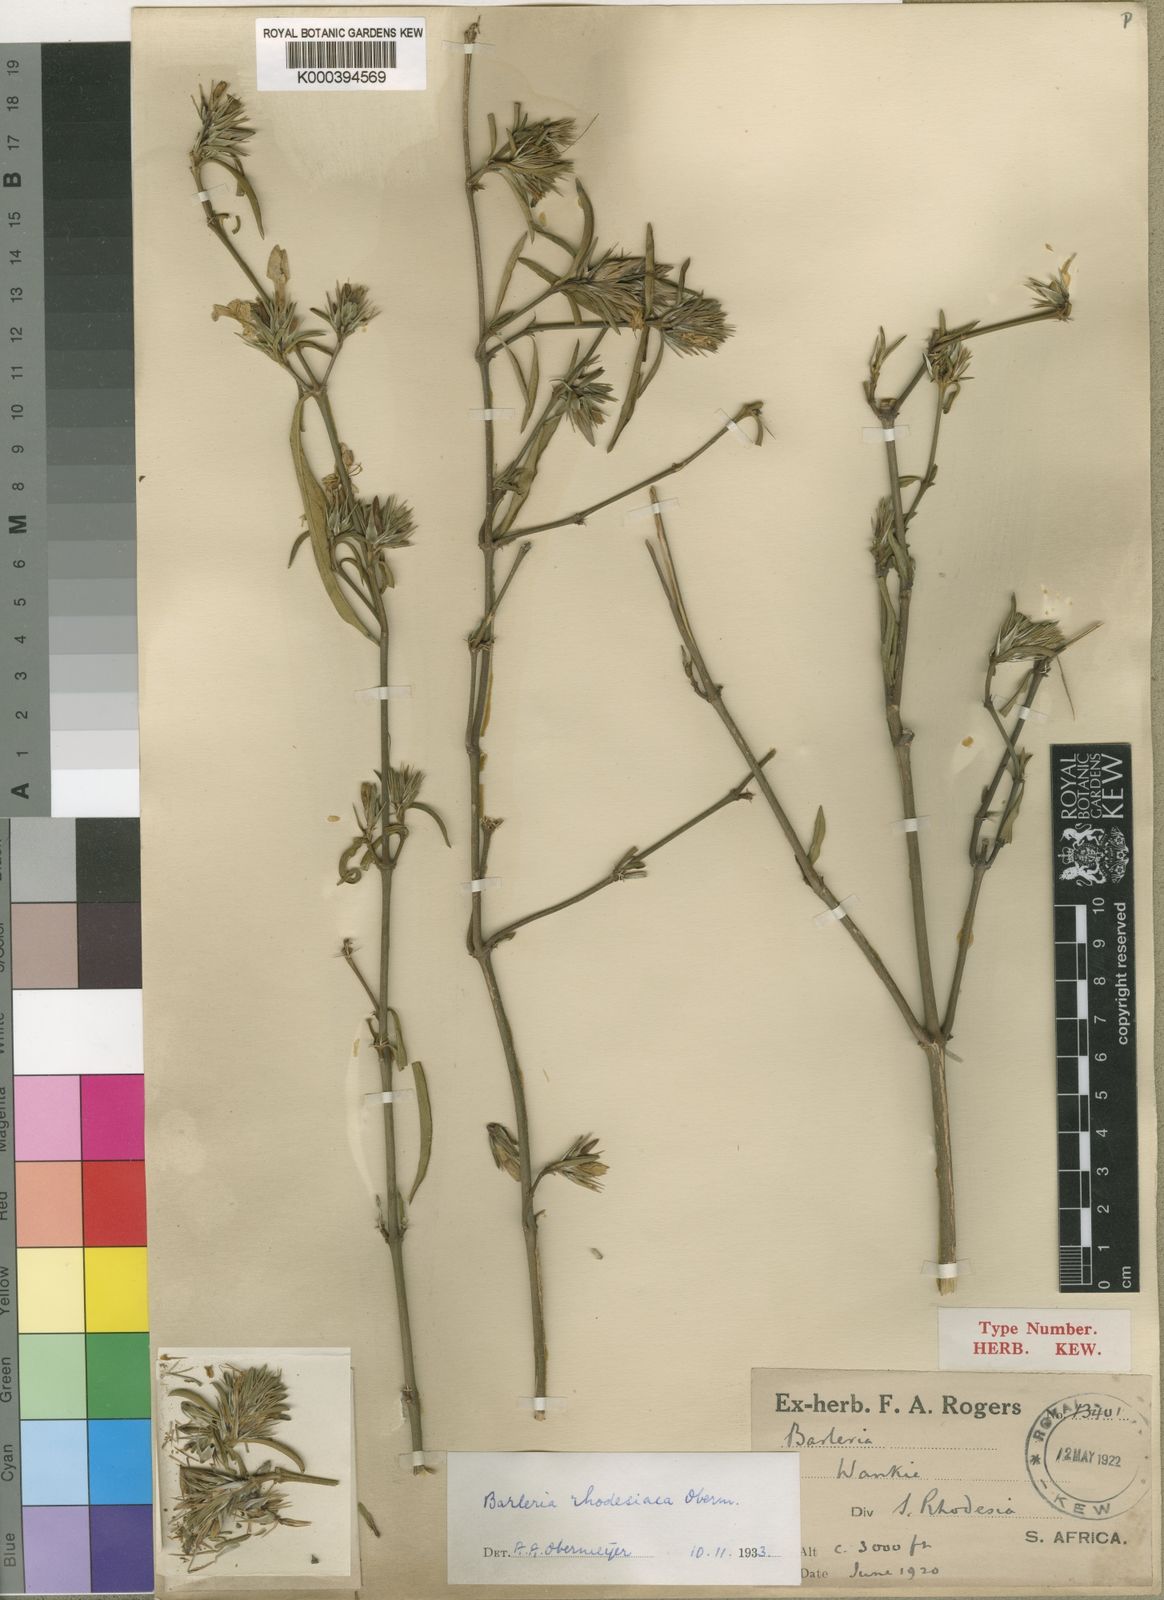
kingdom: Plantae
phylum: Tracheophyta
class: Magnoliopsida
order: Lamiales
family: Acanthaceae
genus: Barleria
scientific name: Barleria rhodesiaca
